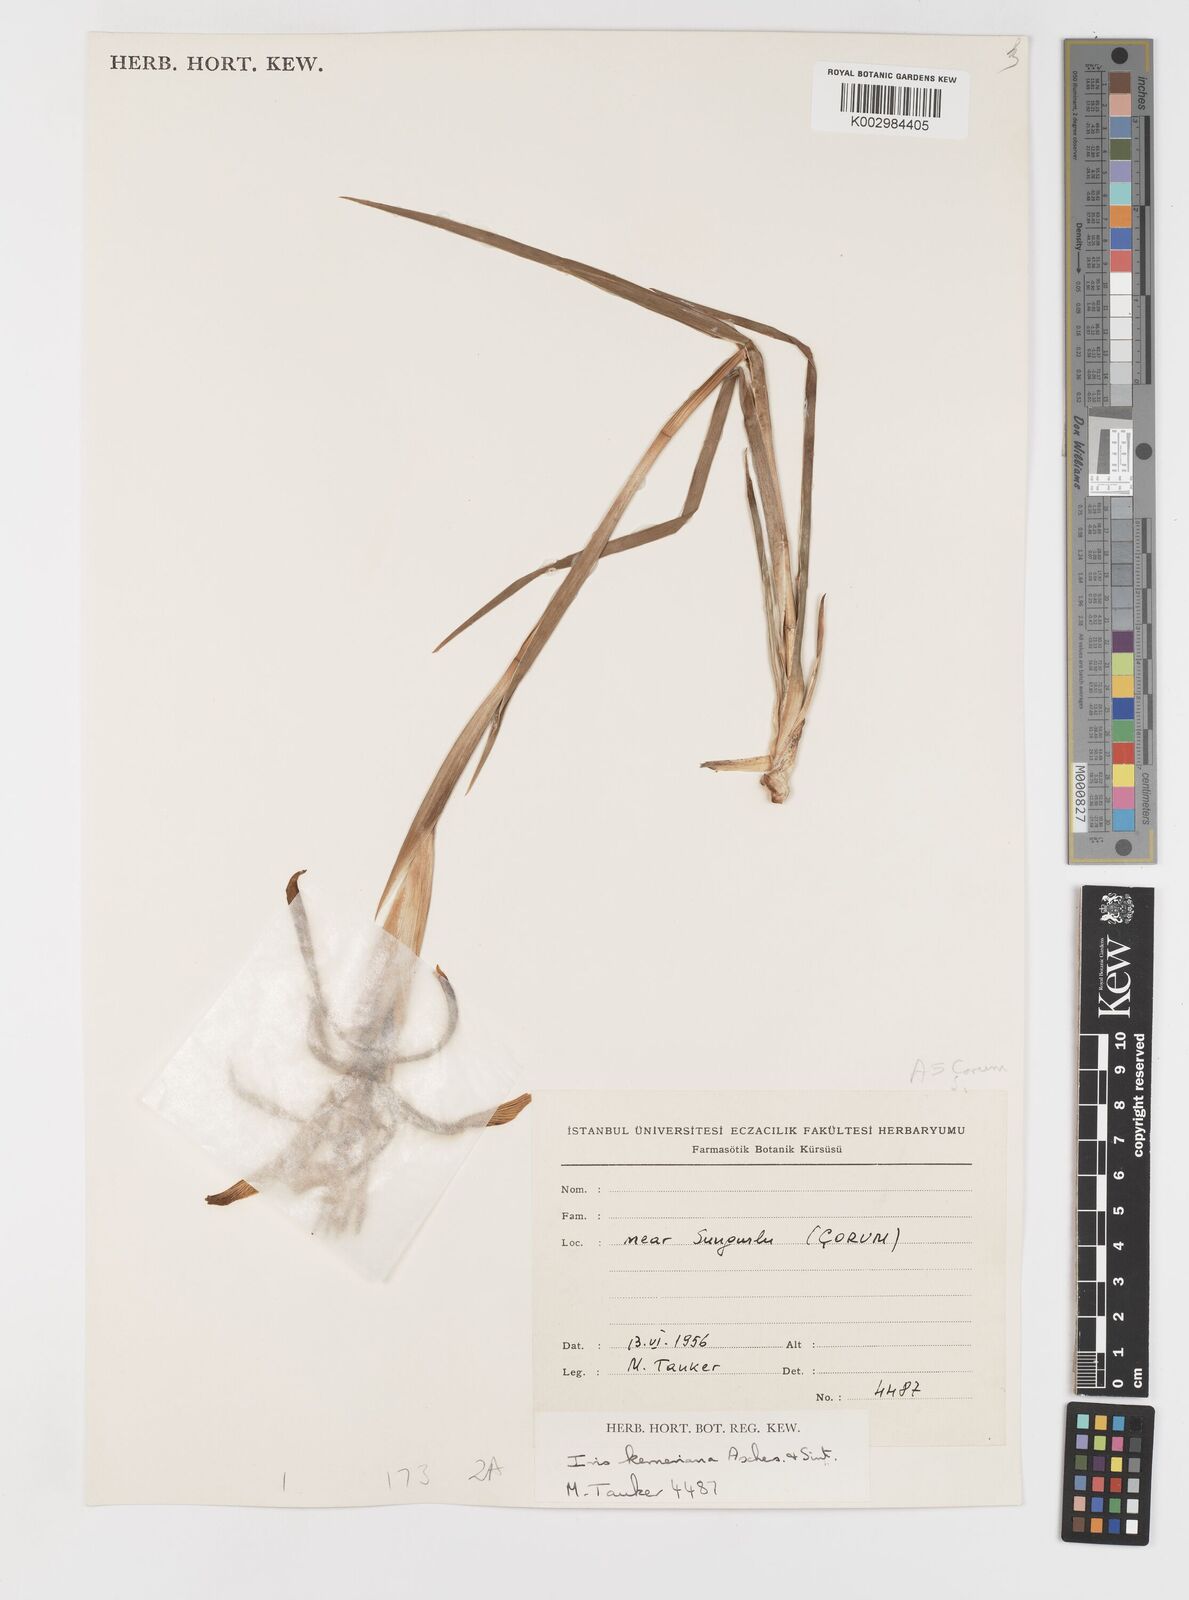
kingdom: Plantae
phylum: Tracheophyta
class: Liliopsida
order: Asparagales
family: Iridaceae
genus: Iris
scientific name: Iris haussknechtii
